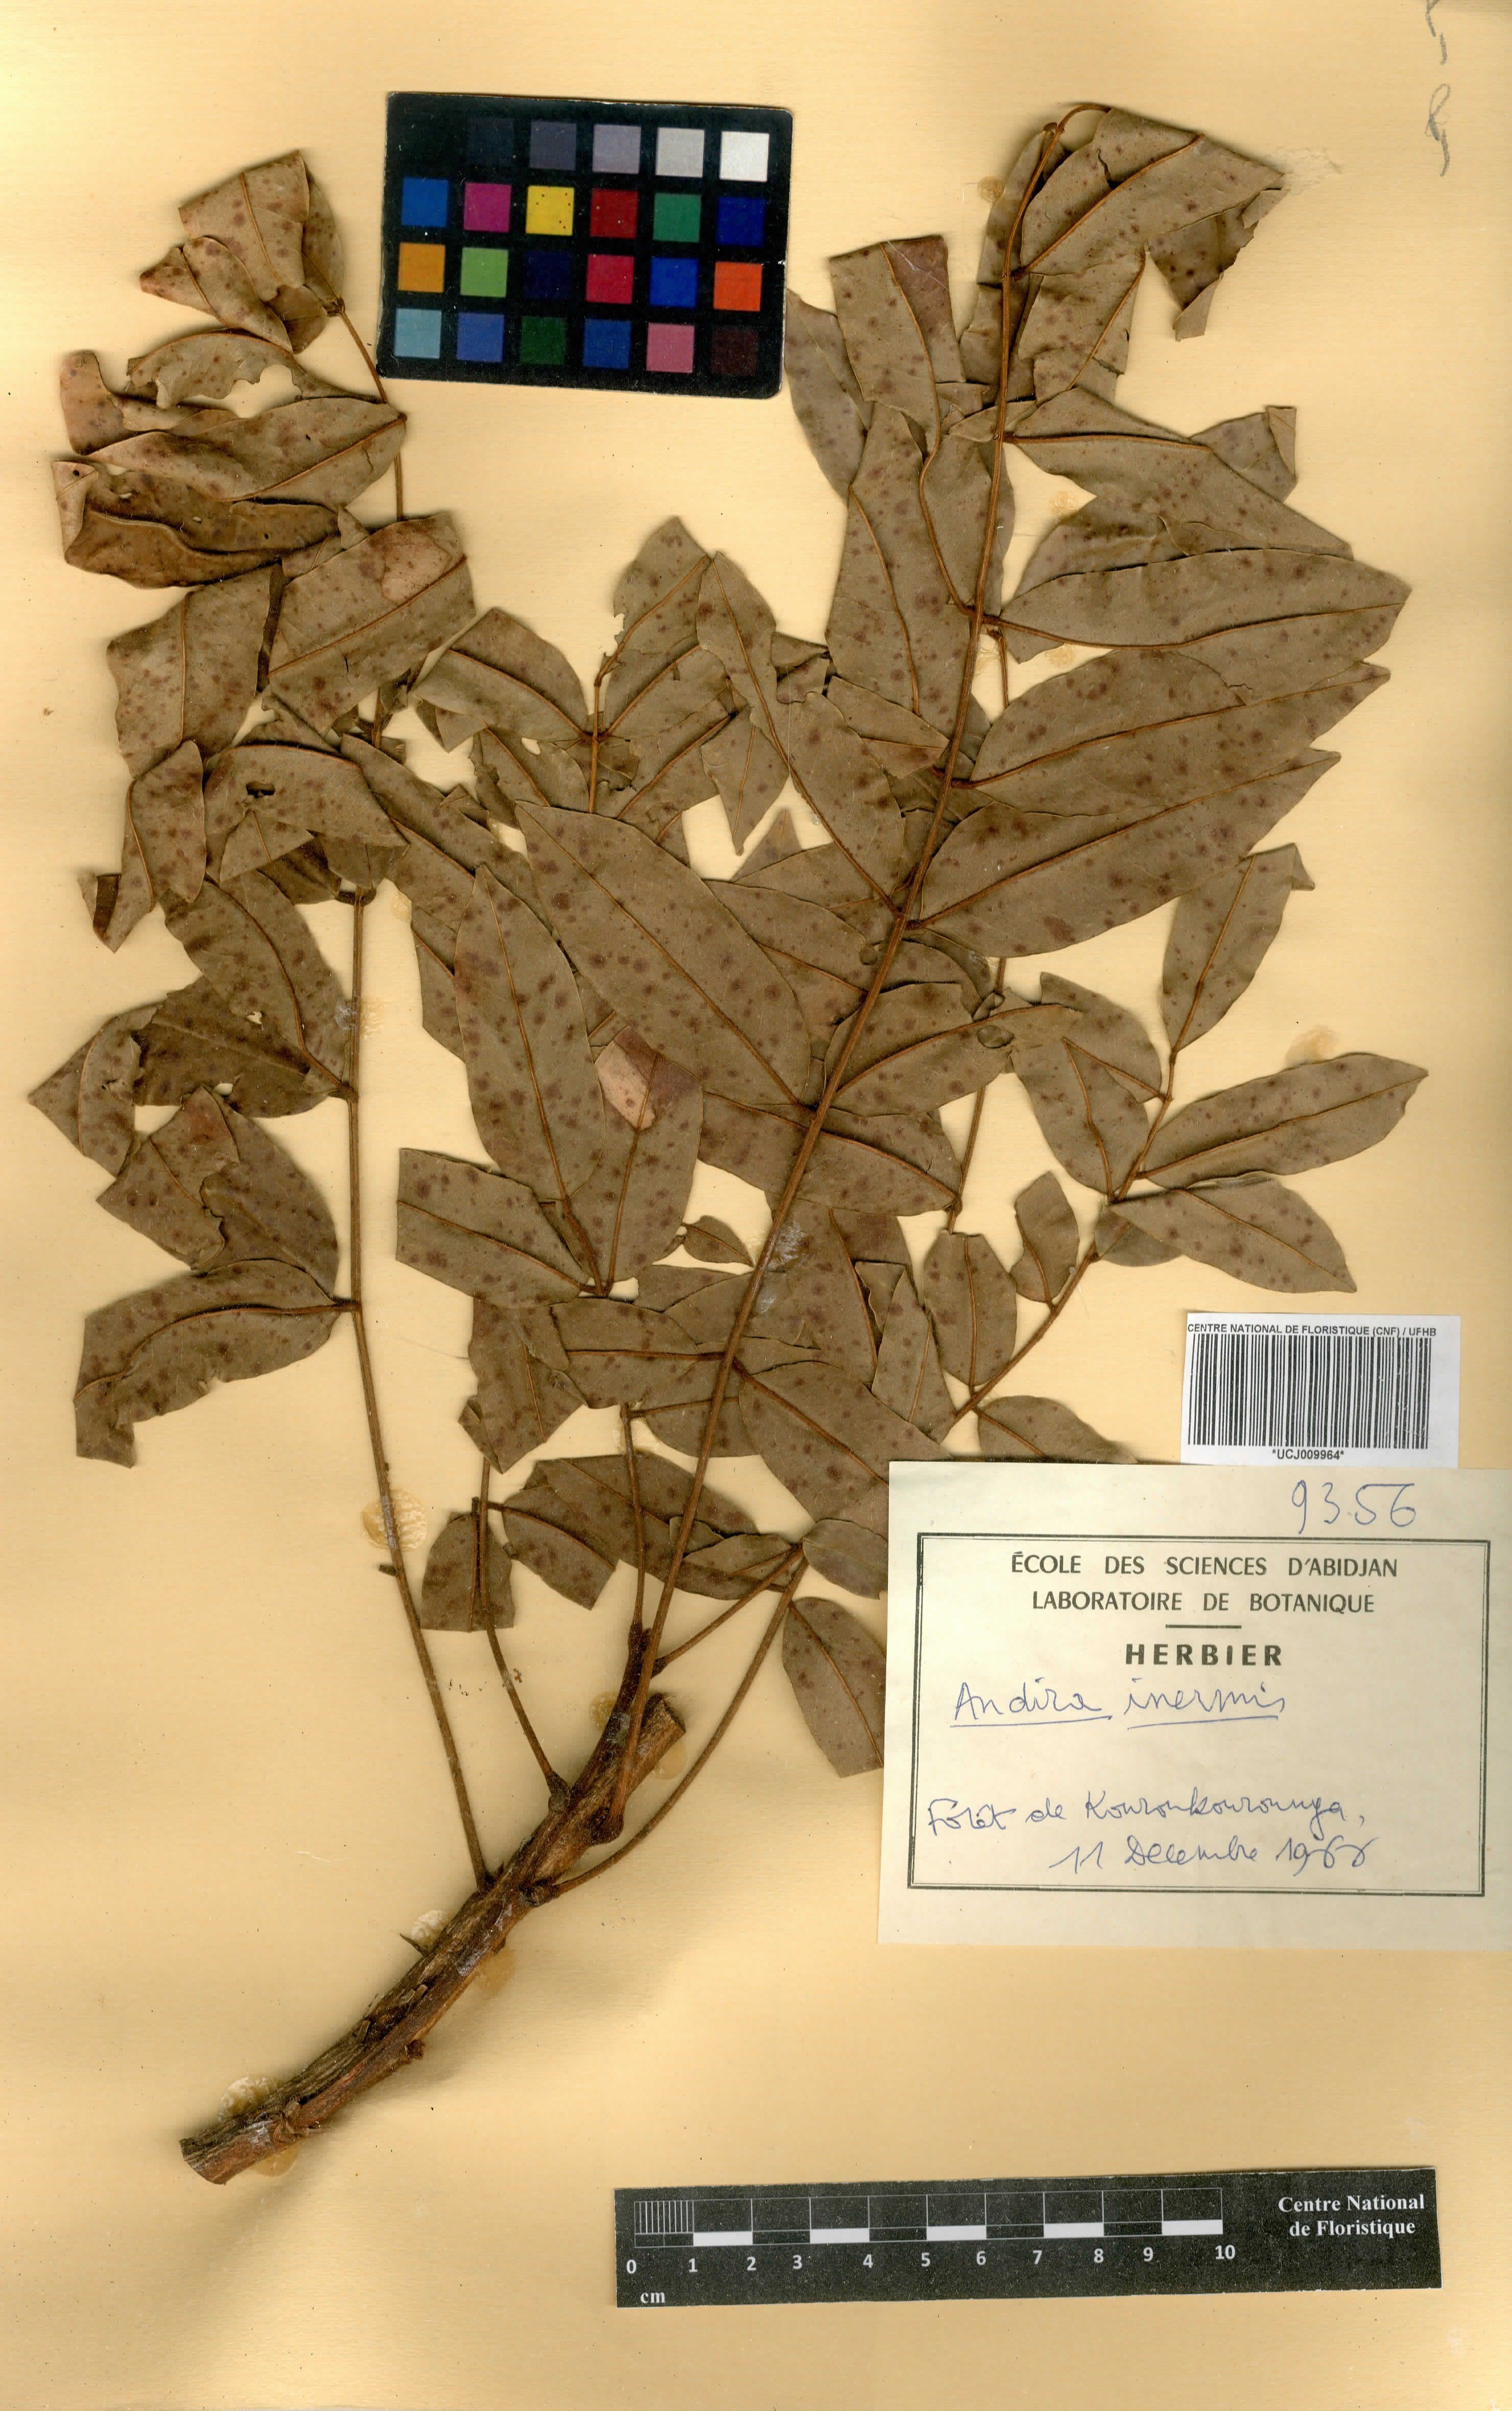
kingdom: Plantae
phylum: Tracheophyta
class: Magnoliopsida
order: Fabales
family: Fabaceae
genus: Andira
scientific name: Andira inermis
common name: Angelin
